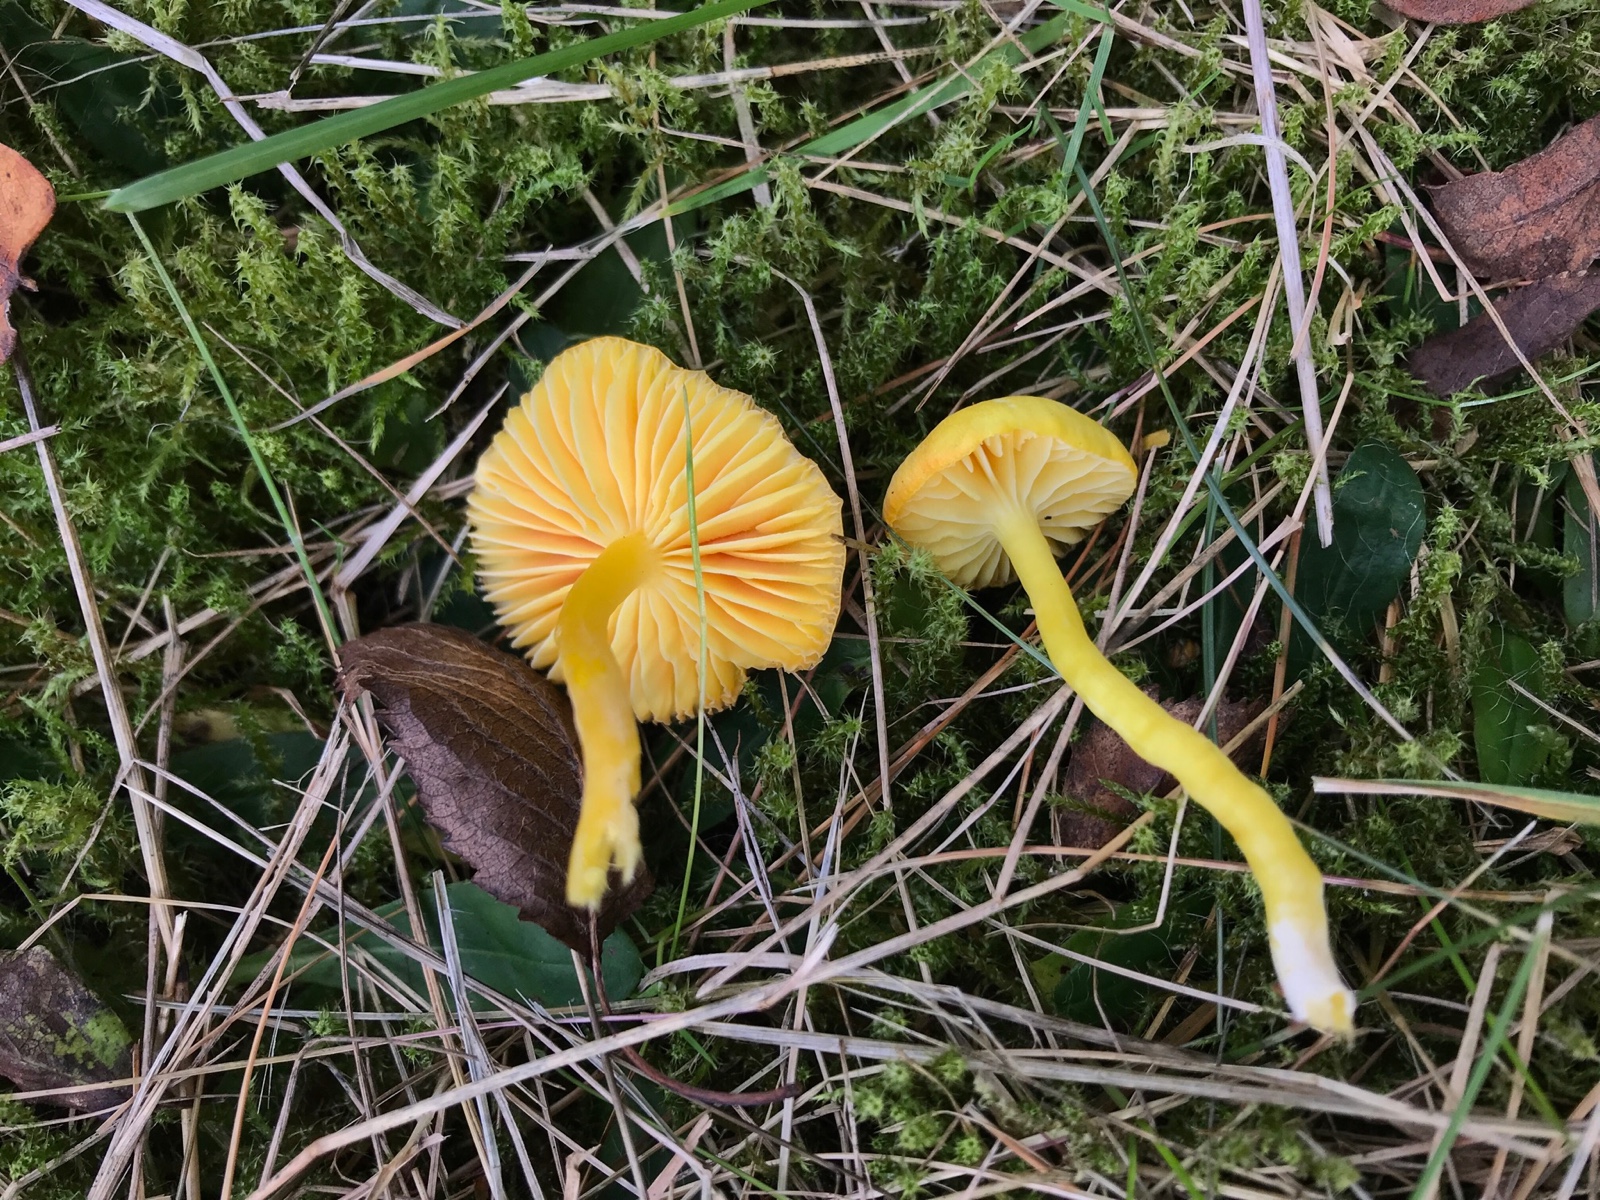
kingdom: Fungi
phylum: Basidiomycota
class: Agaricomycetes
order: Agaricales
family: Hygrophoraceae
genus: Hygrocybe
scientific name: Hygrocybe chlorophana
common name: gul vokshat
